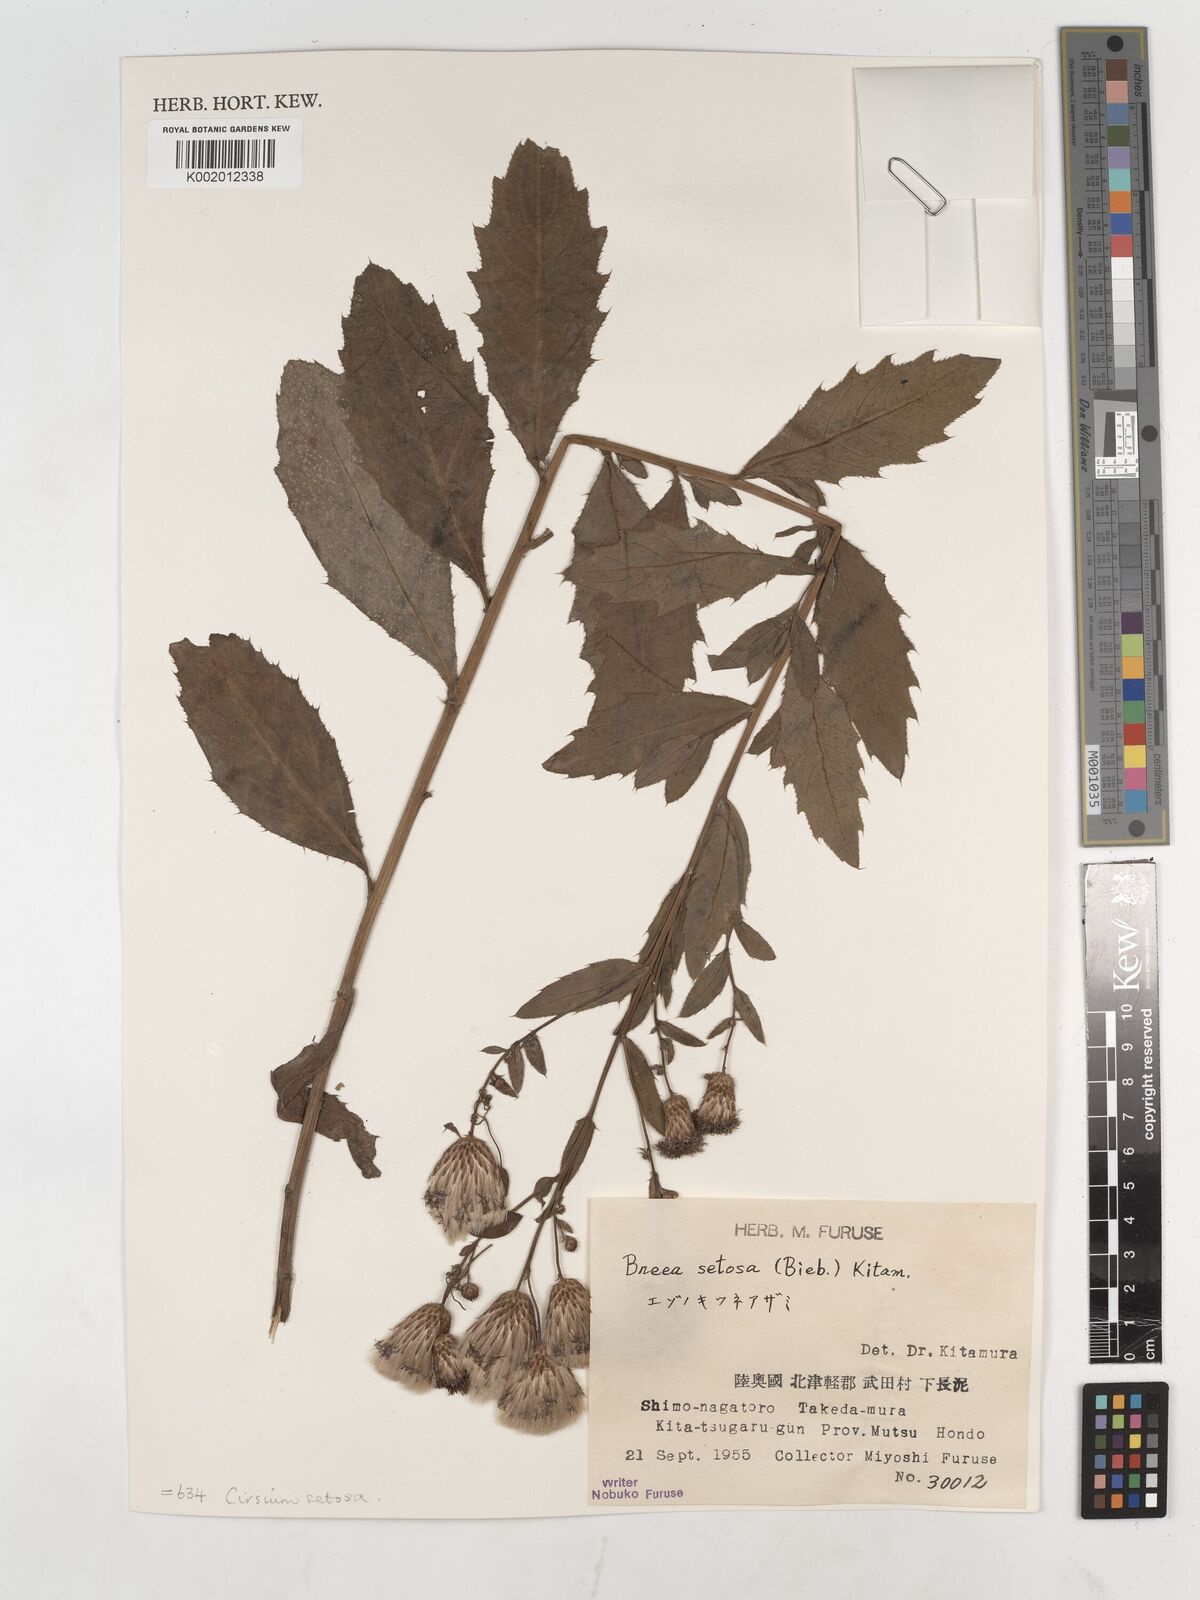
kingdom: Plantae
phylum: Tracheophyta
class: Magnoliopsida
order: Asterales
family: Asteraceae
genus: Cirsium
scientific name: Cirsium arvense
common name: Creeping thistle
